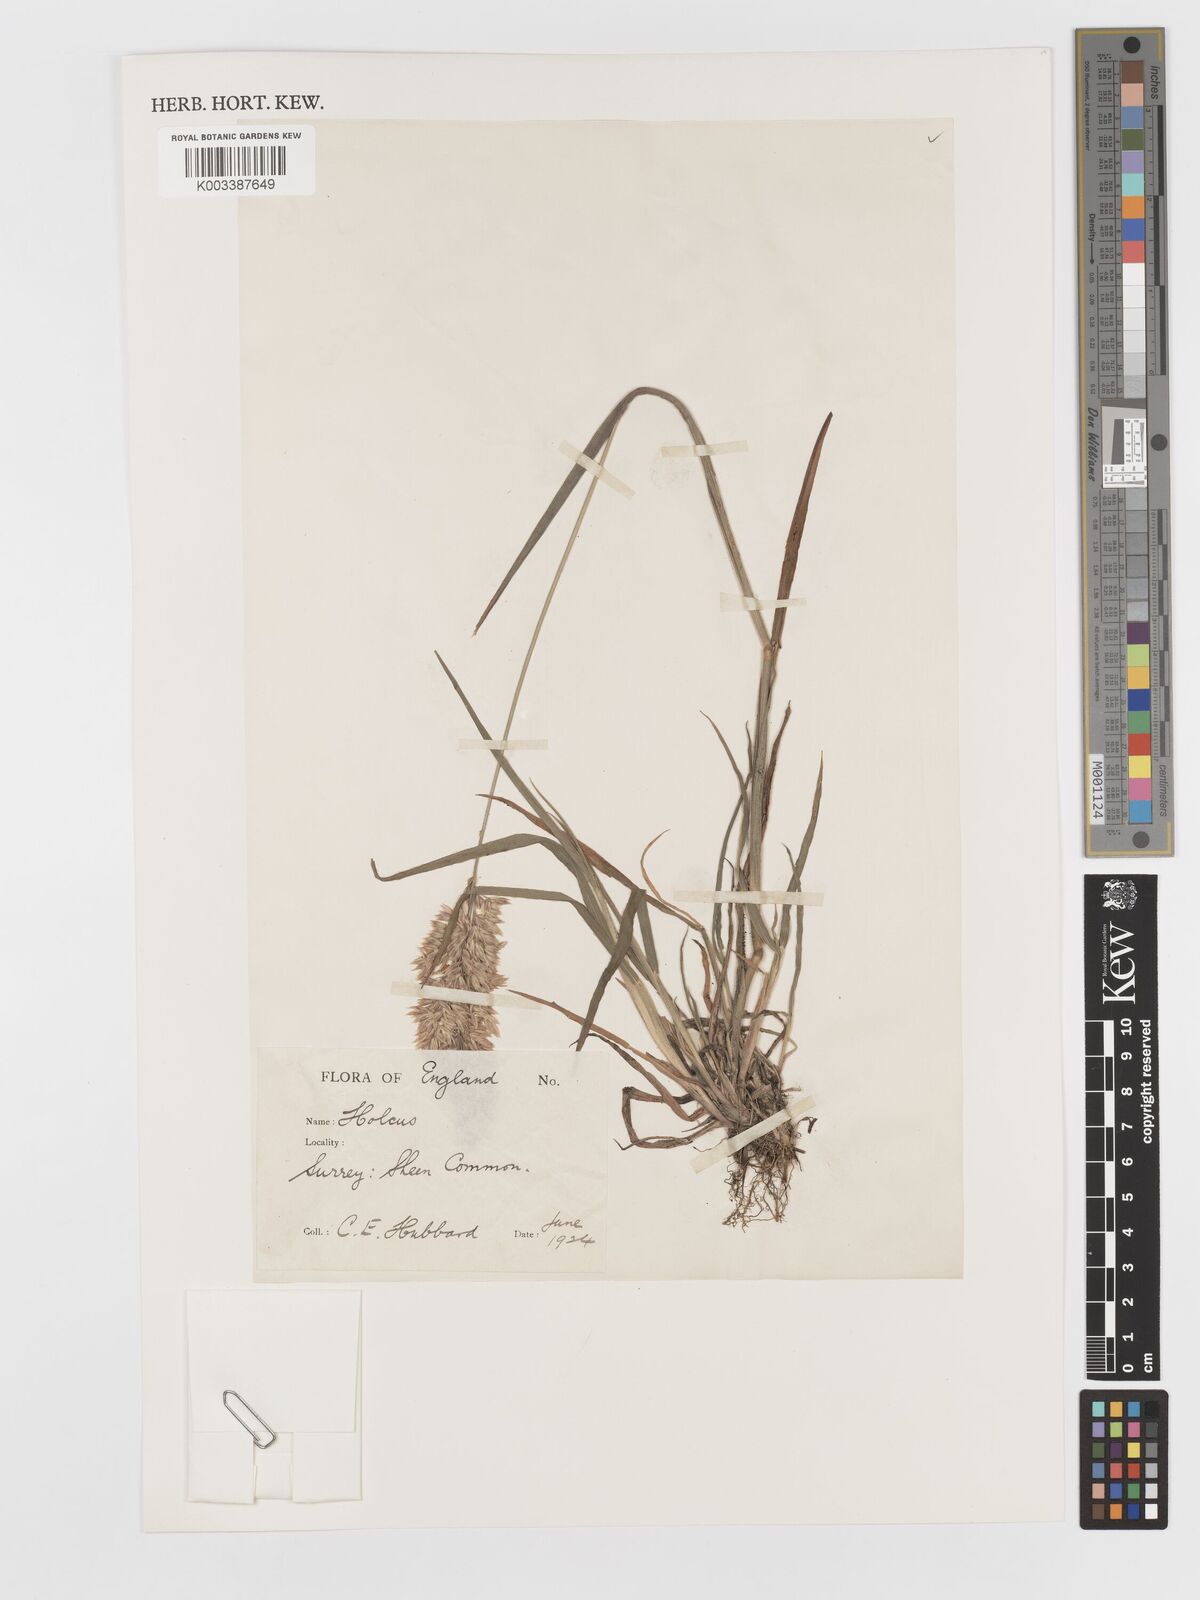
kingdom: Plantae
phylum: Tracheophyta
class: Liliopsida
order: Poales
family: Poaceae
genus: Holcus
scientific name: Holcus lanatus
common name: Yorkshire-fog
